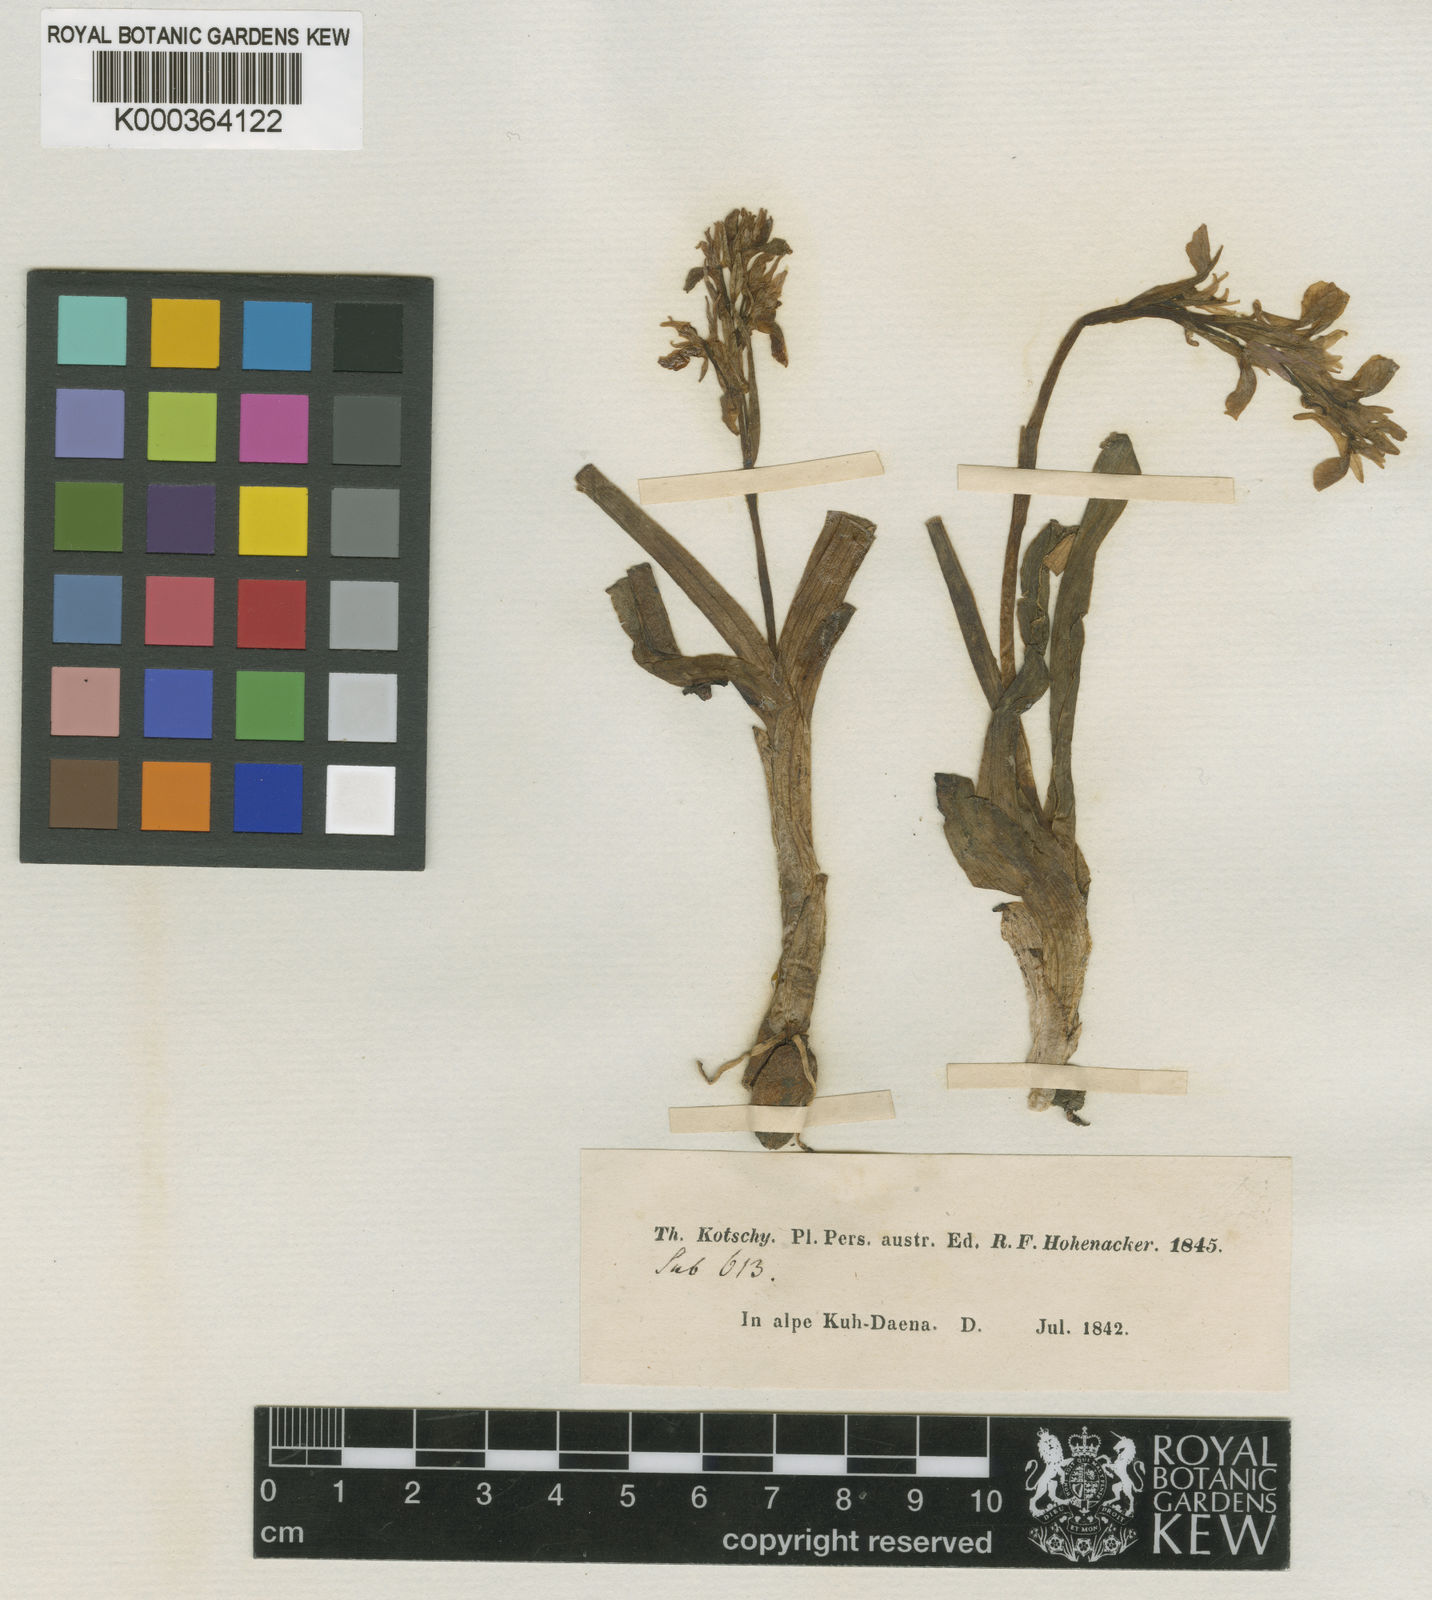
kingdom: Plantae
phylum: Tracheophyta
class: Liliopsida
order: Asparagales
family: Orchidaceae
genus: Orchis
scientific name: Orchis
